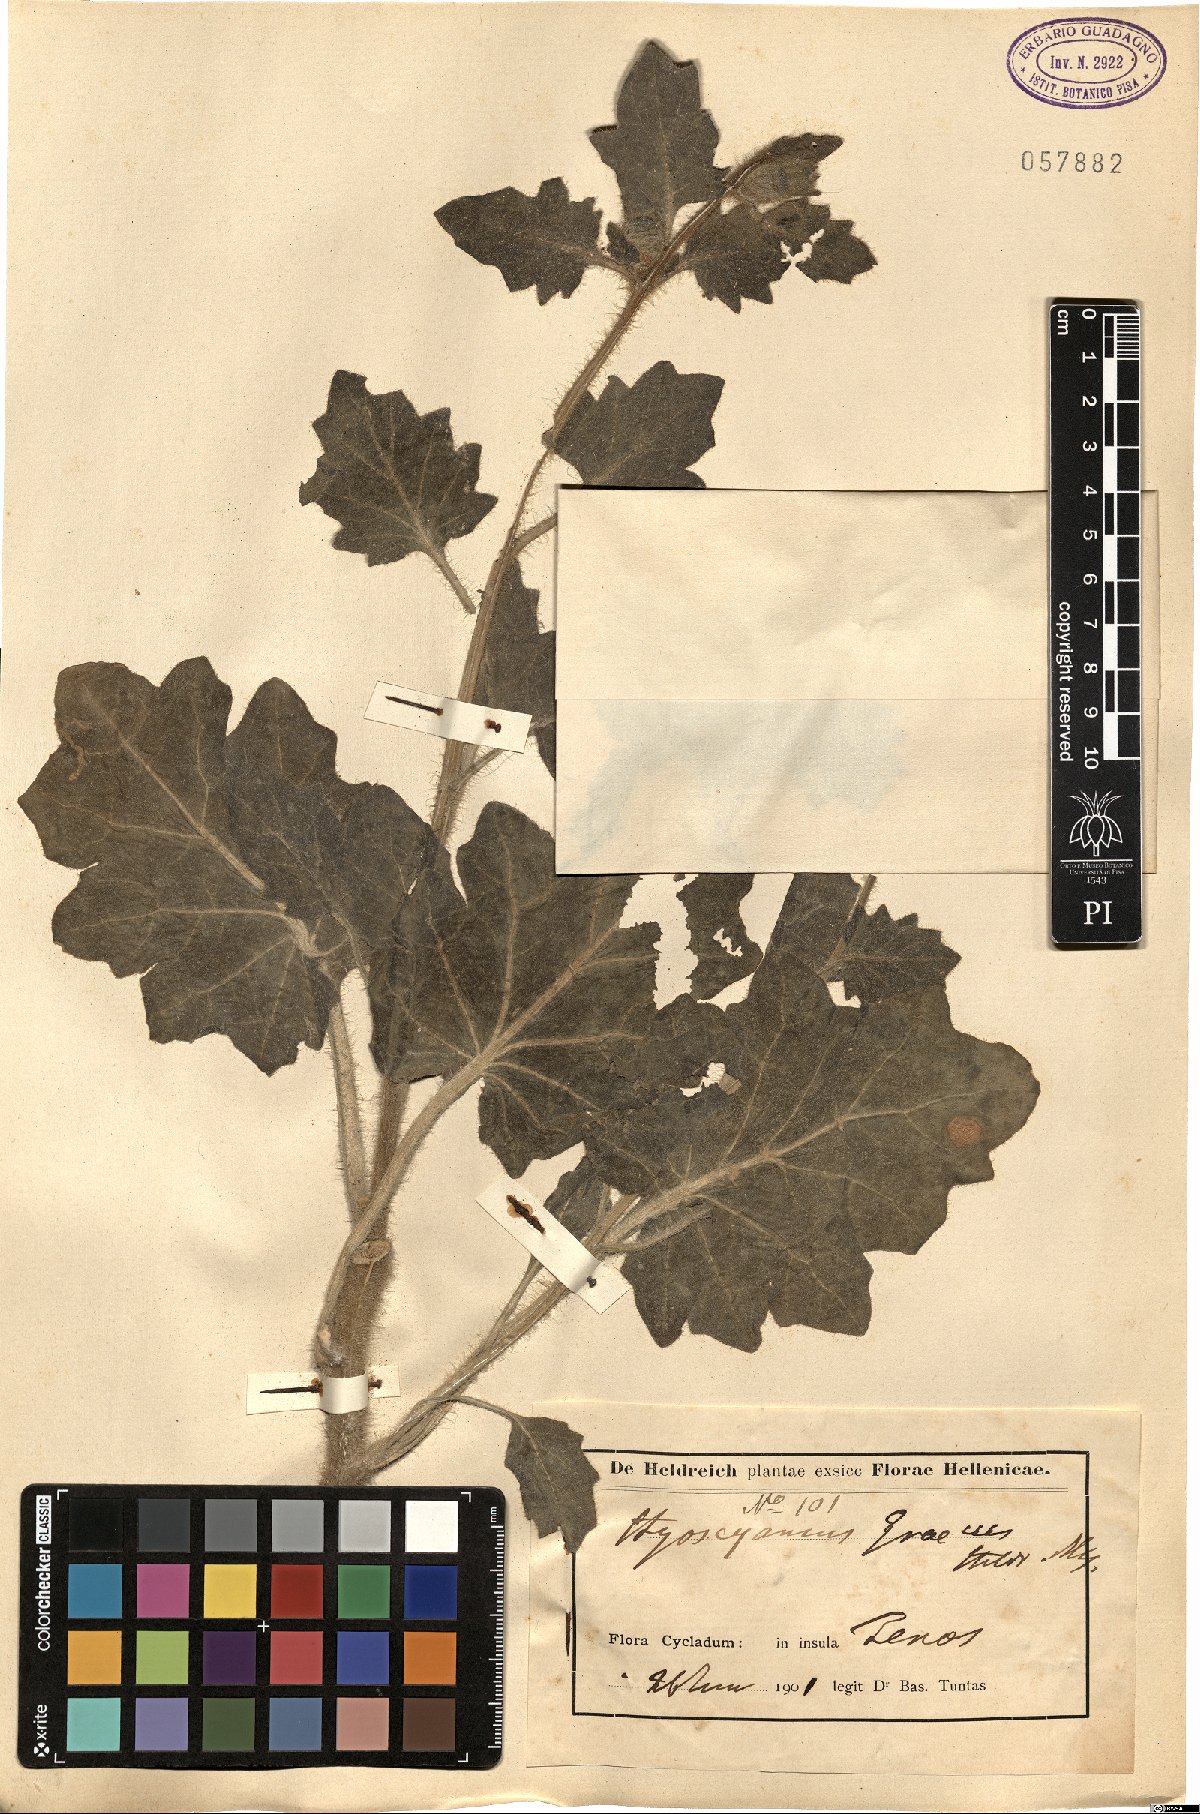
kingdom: Plantae
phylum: Tracheophyta
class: Magnoliopsida
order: Solanales
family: Solanaceae
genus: Hyoscyamus
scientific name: Hyoscyamus
